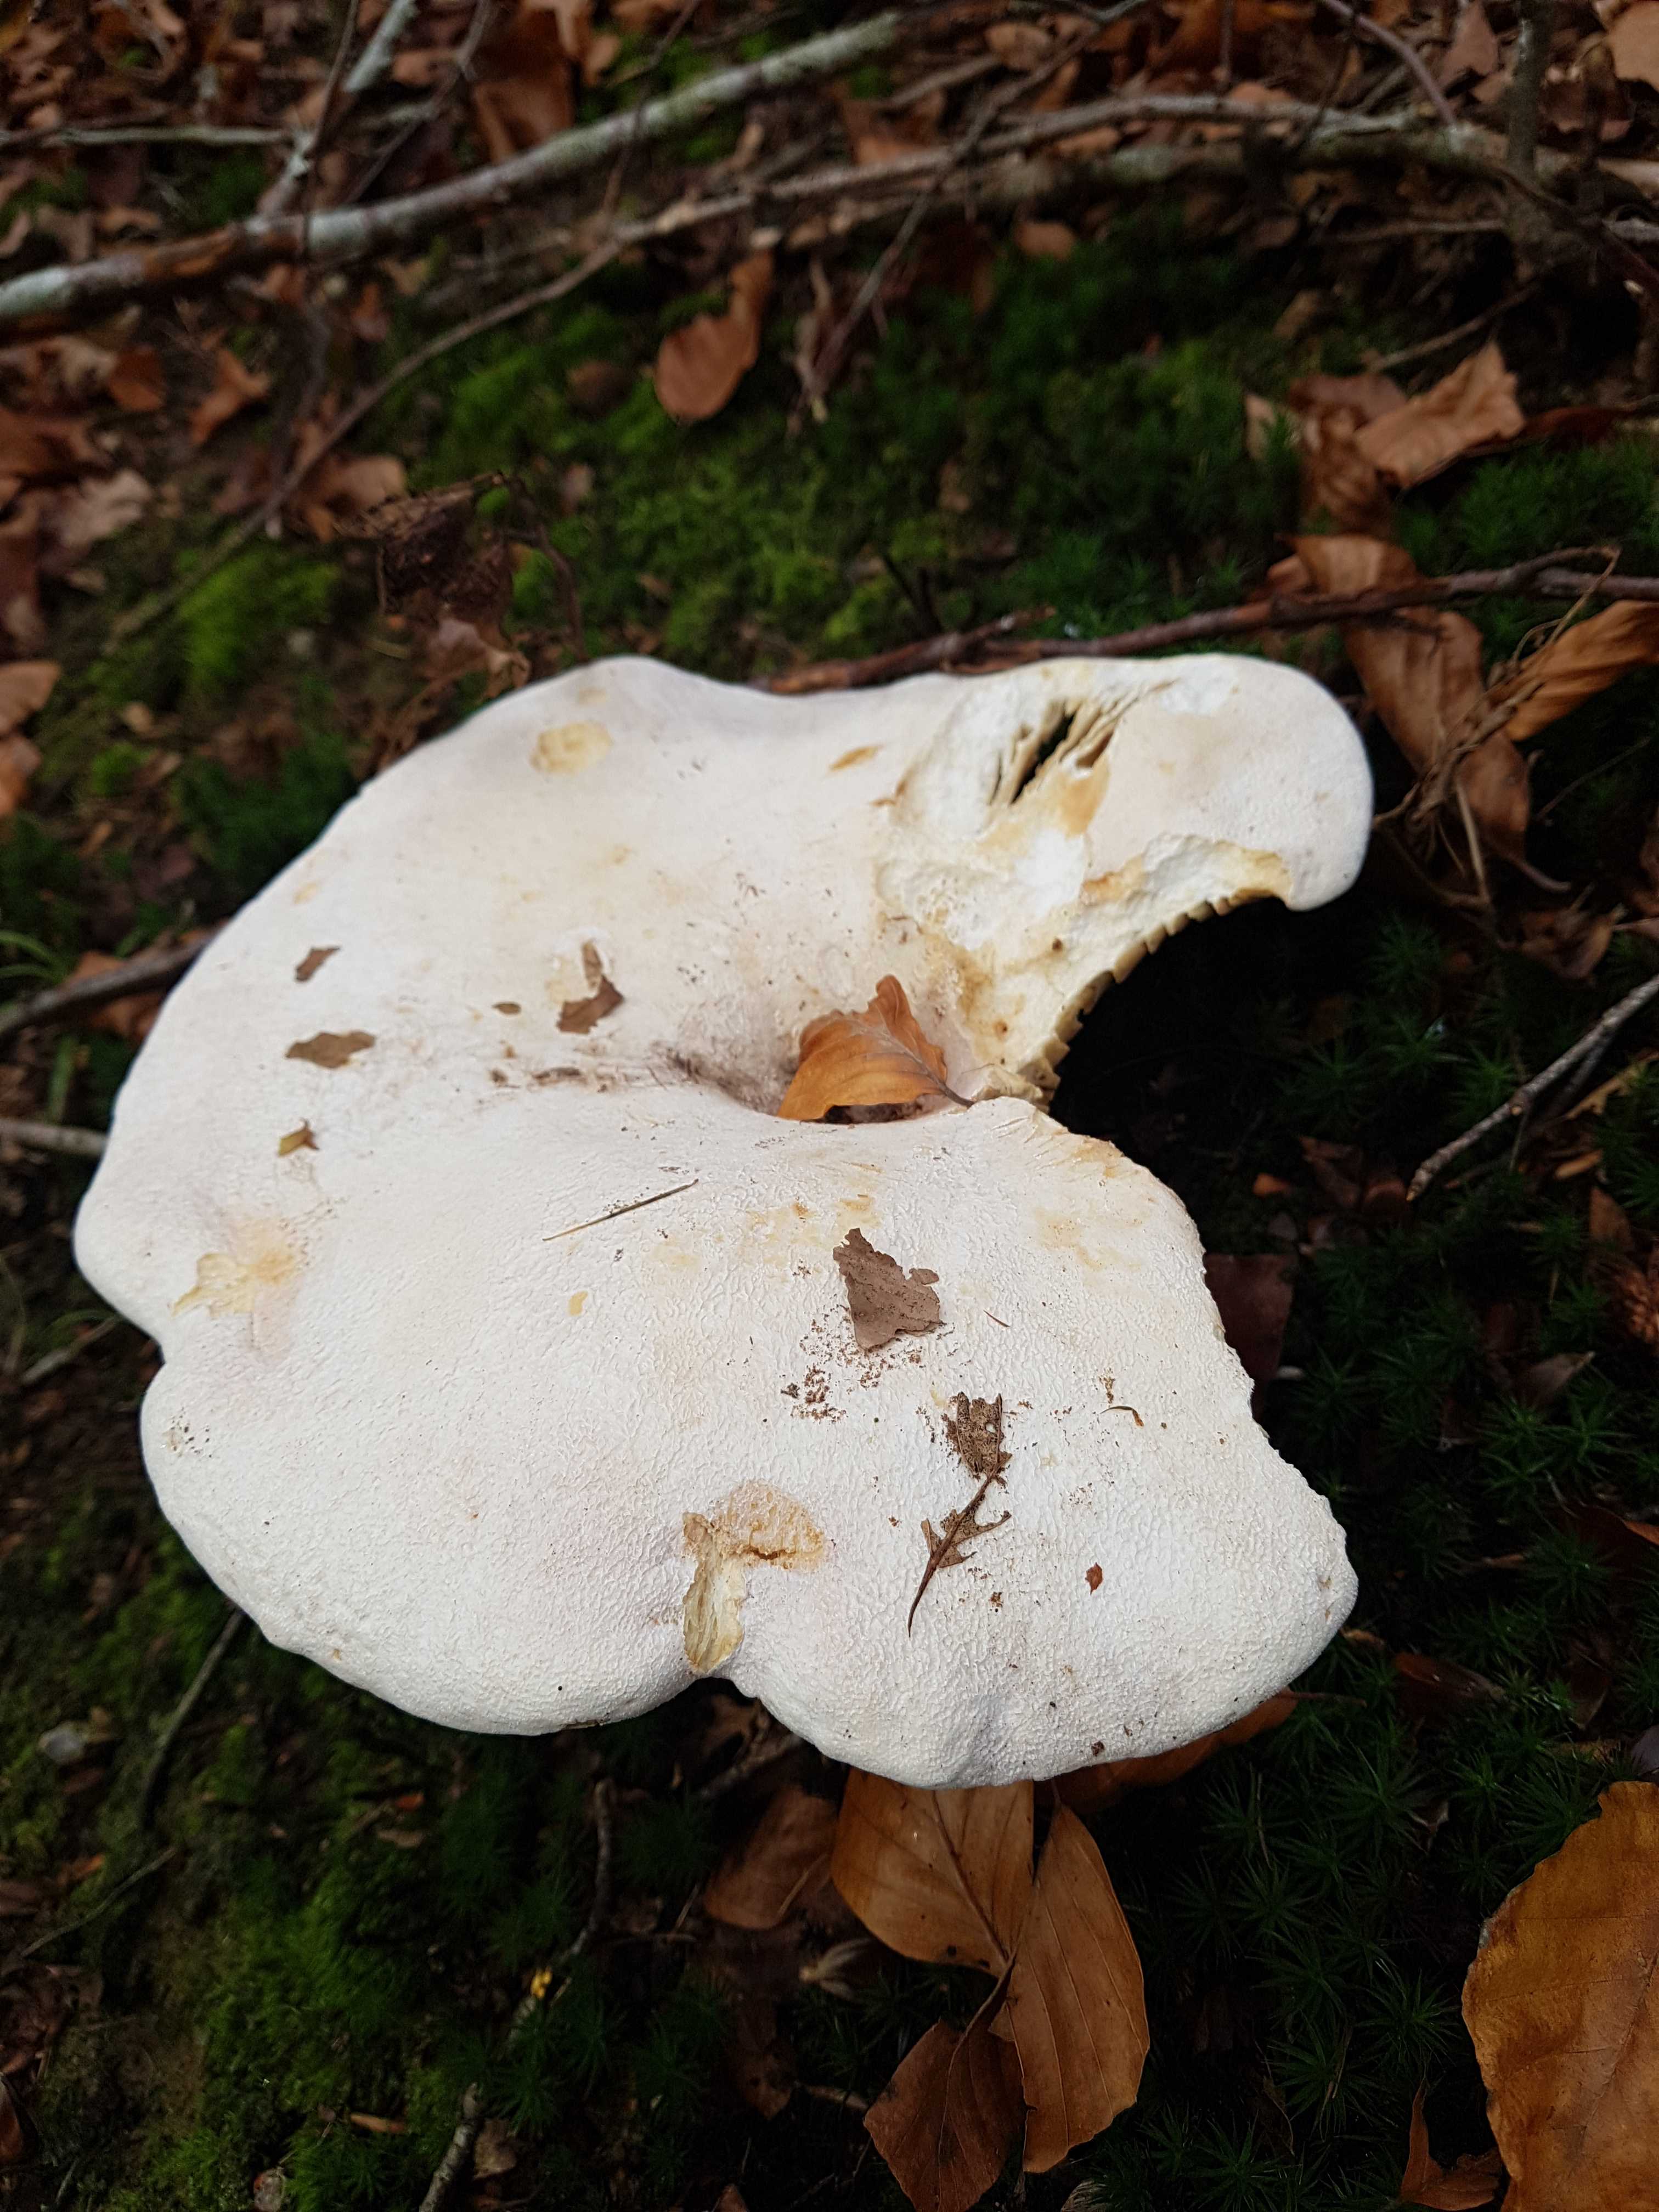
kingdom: Fungi
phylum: Basidiomycota
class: Agaricomycetes
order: Russulales
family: Russulaceae
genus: Lactifluus
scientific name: Lactifluus
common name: mælkehat
